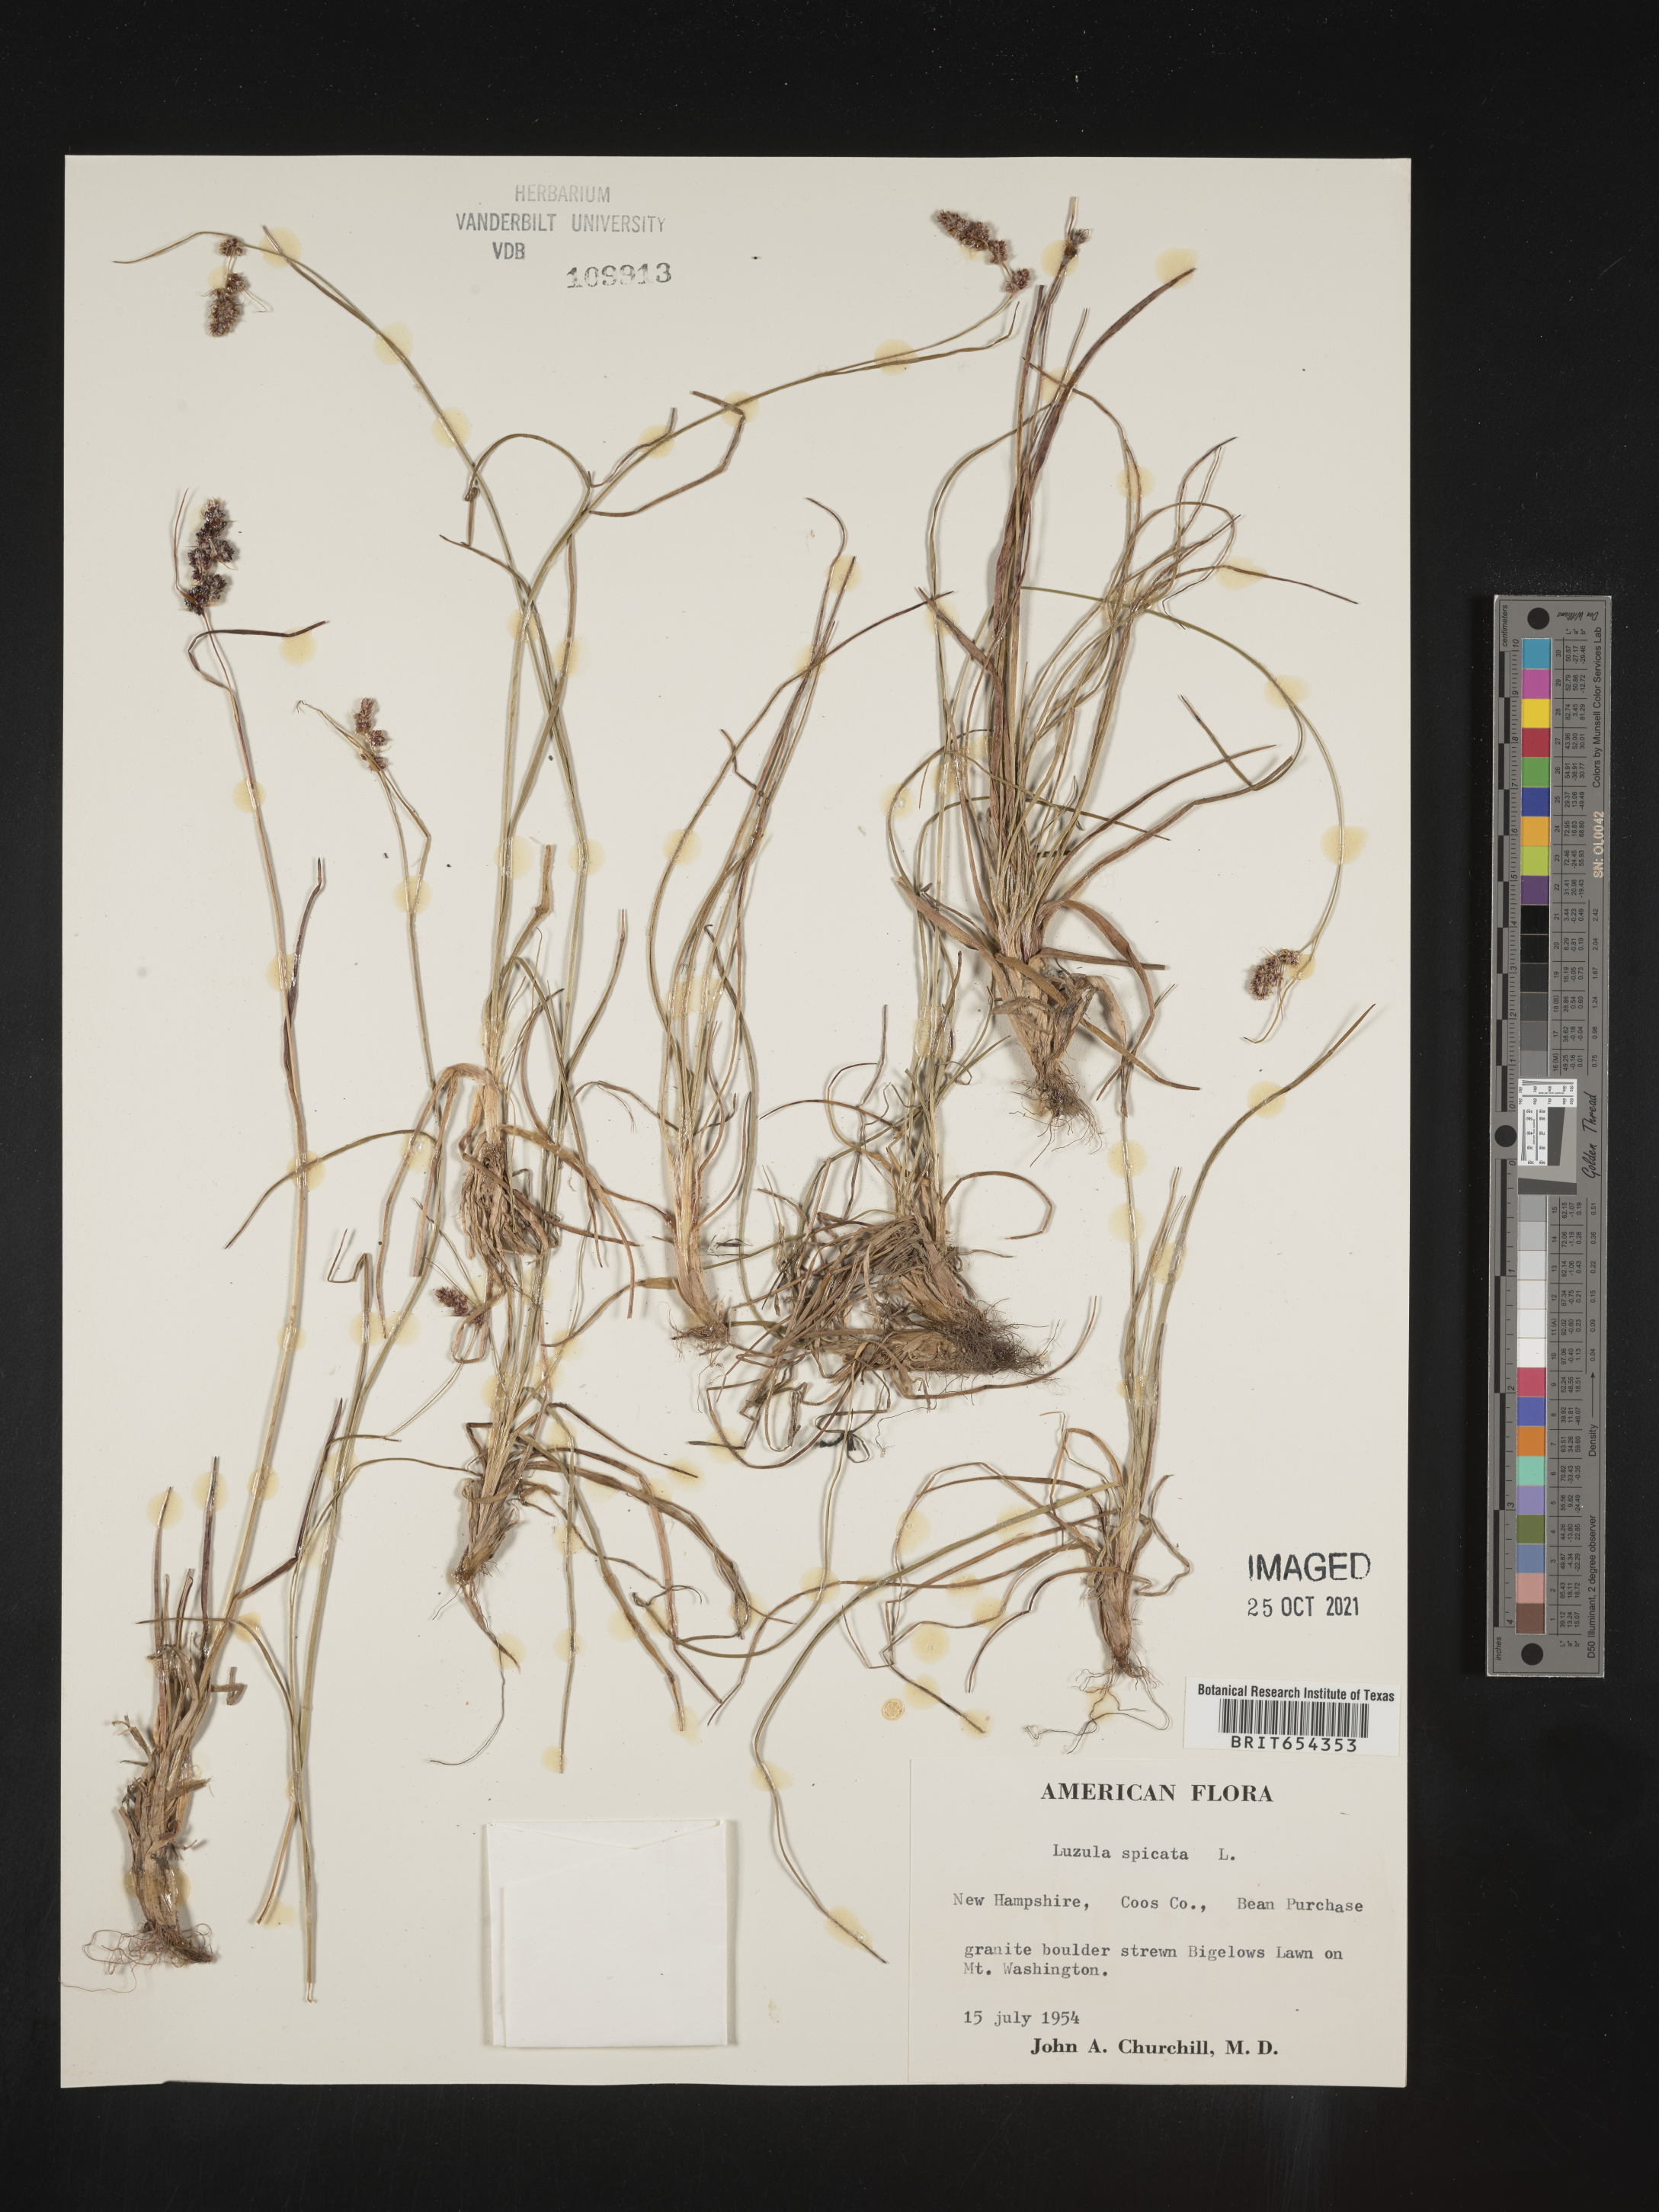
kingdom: Plantae
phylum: Tracheophyta
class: Liliopsida
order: Poales
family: Juncaceae
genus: Luzula
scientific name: Luzula
